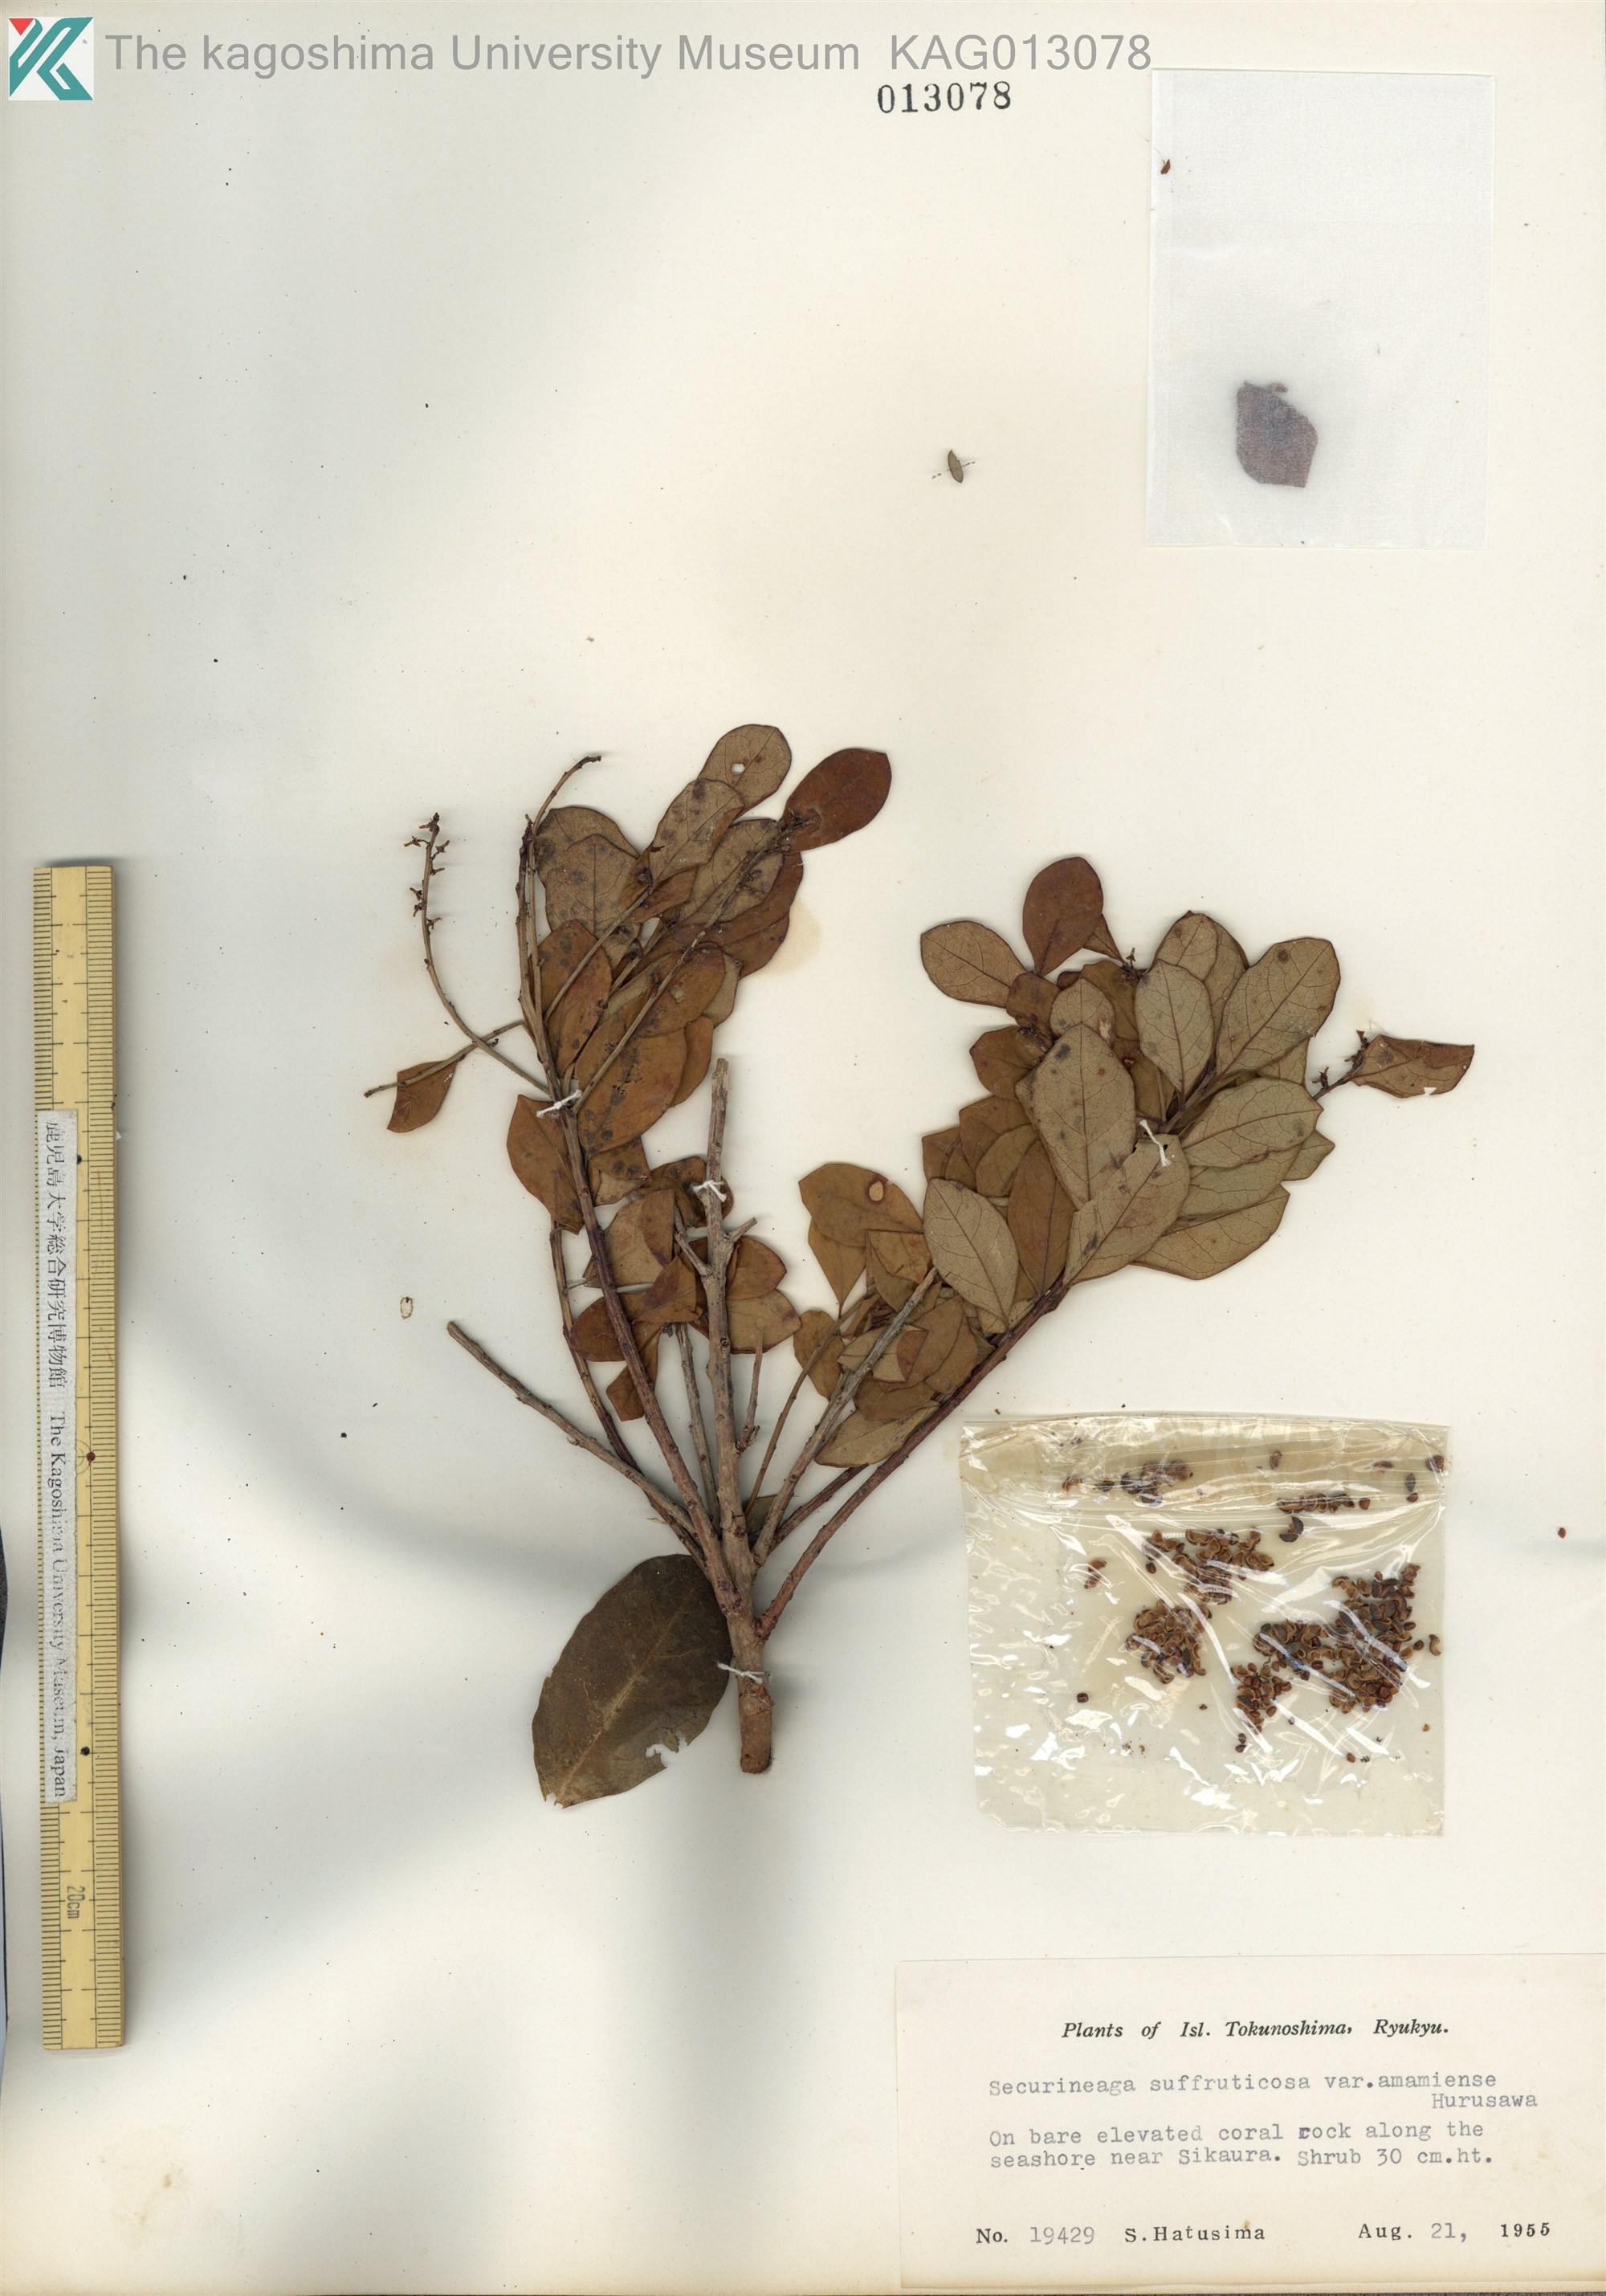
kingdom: Plantae
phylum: Tracheophyta
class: Magnoliopsida
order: Malpighiales
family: Phyllanthaceae
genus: Flueggea
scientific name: Flueggea suffruticosa
